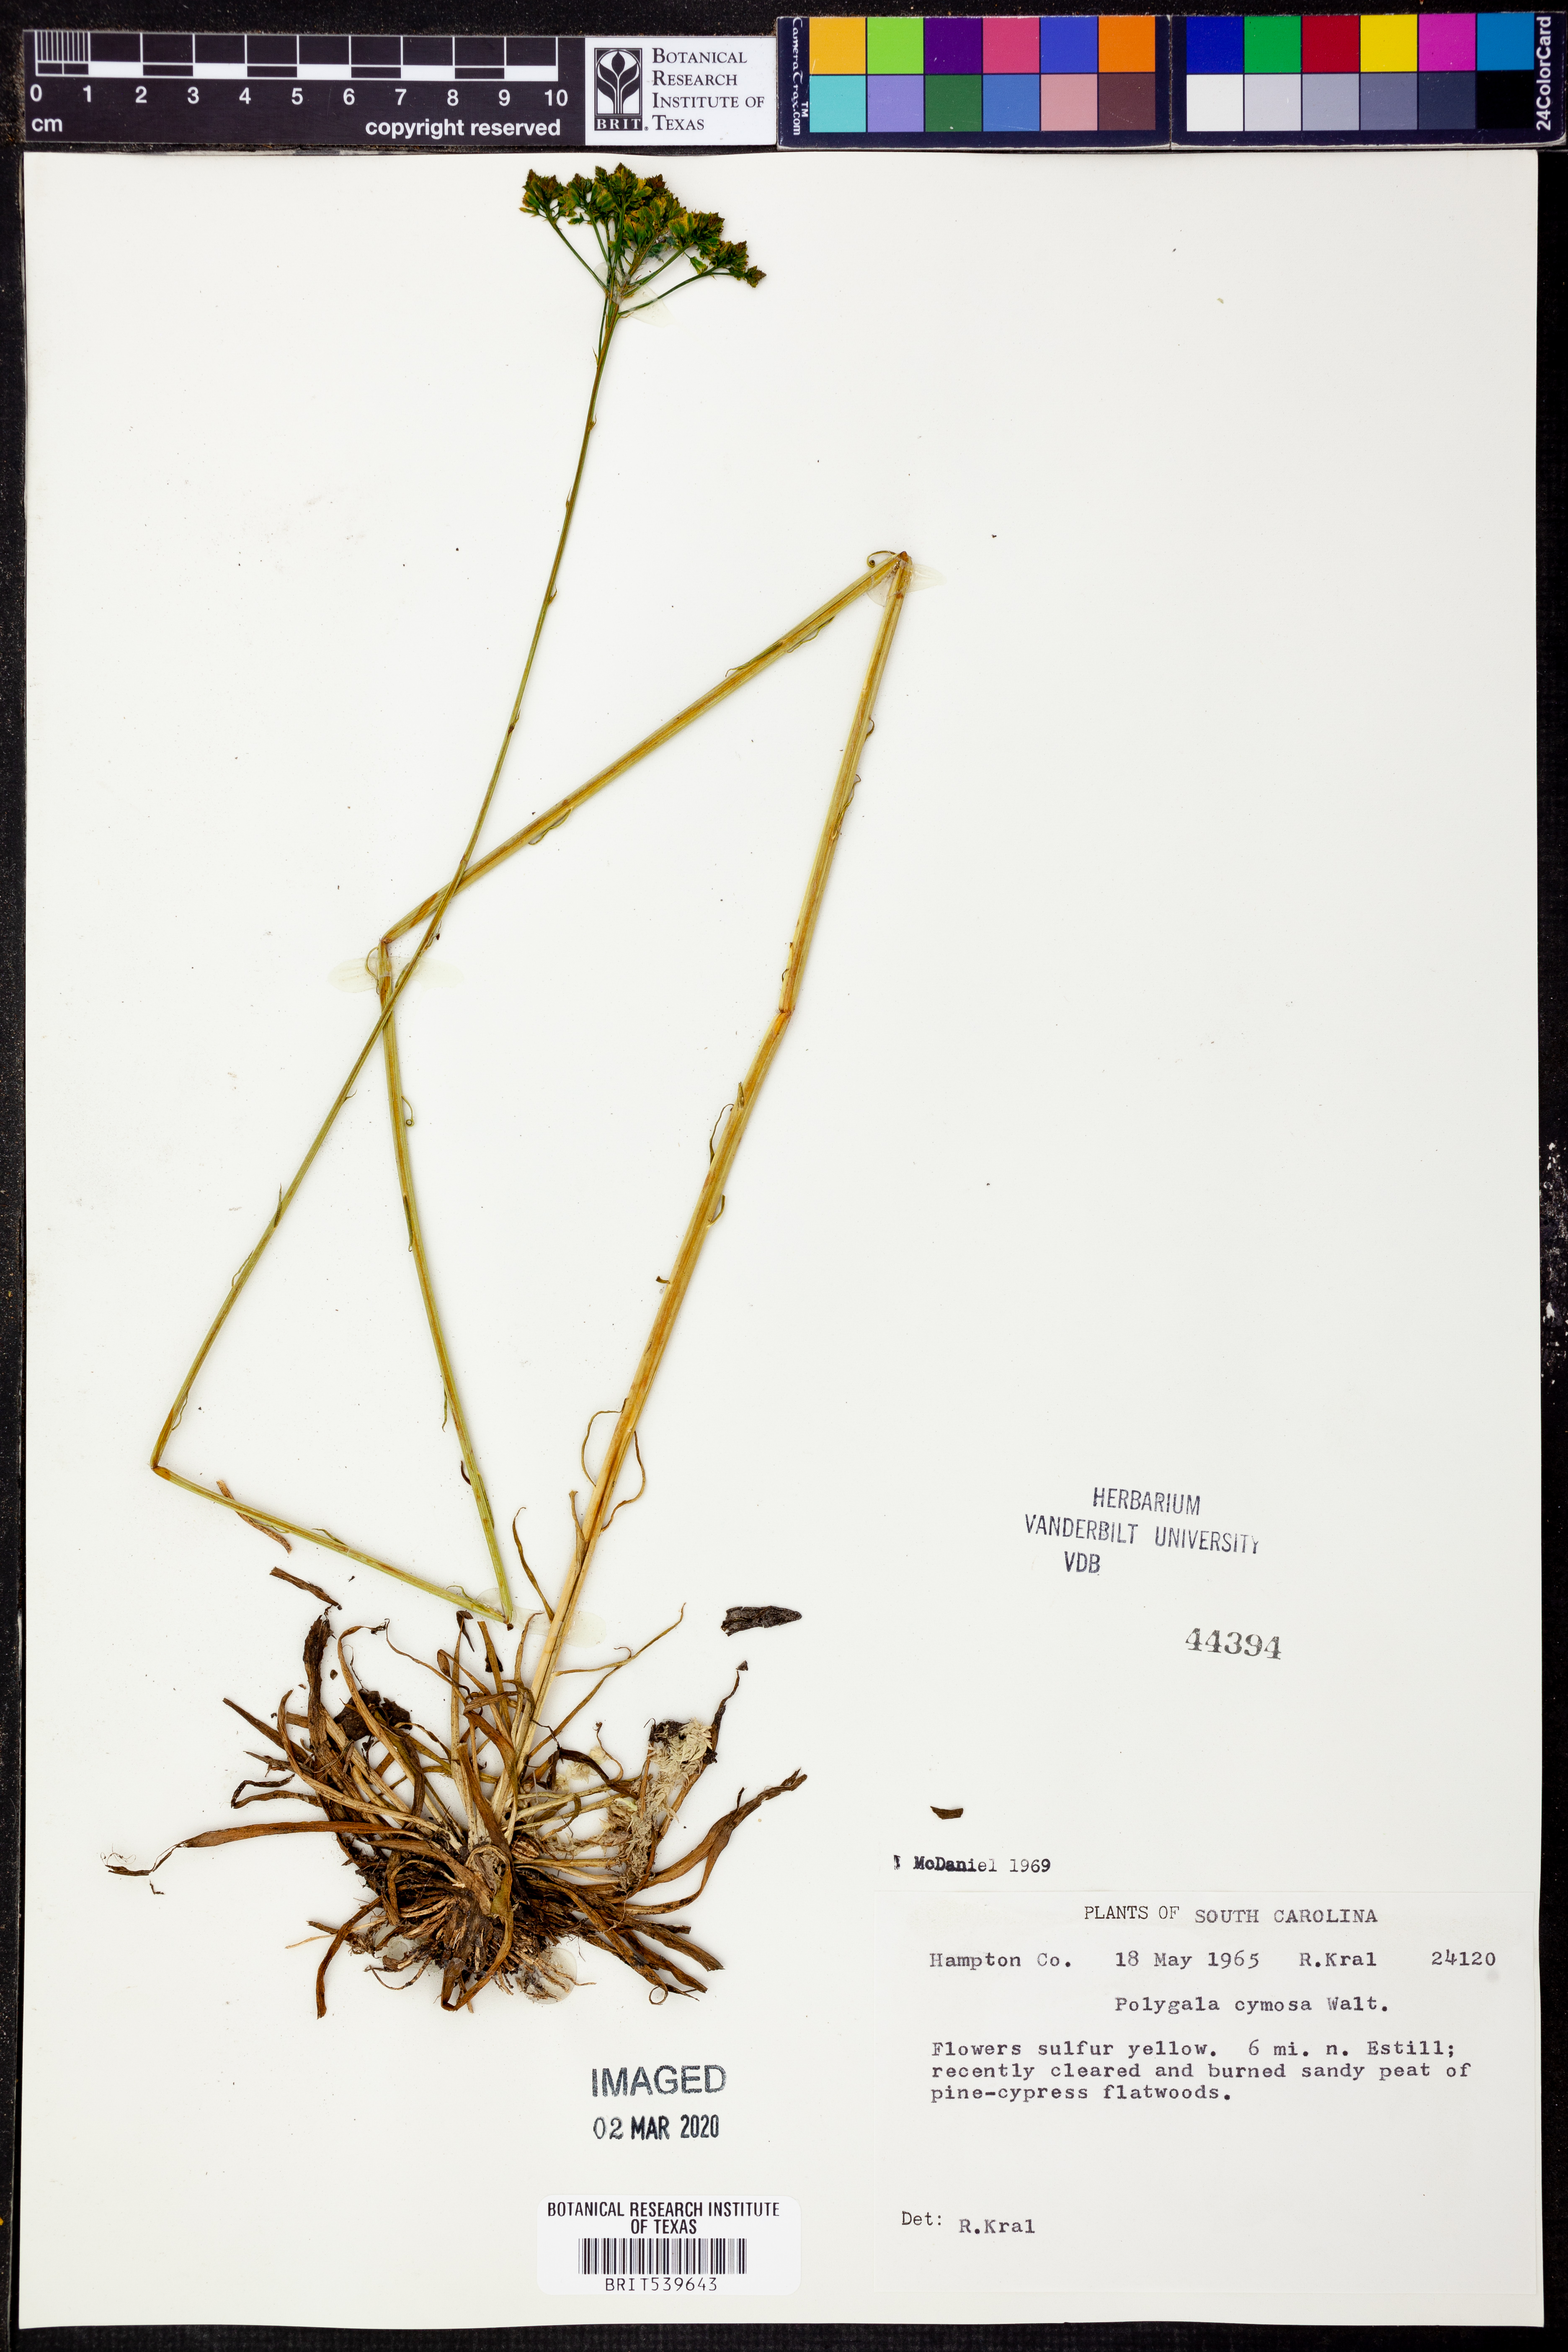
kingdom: Plantae
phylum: Tracheophyta
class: Magnoliopsida
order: Fabales
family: Polygalaceae
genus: Polygala
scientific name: Polygala cymosa
